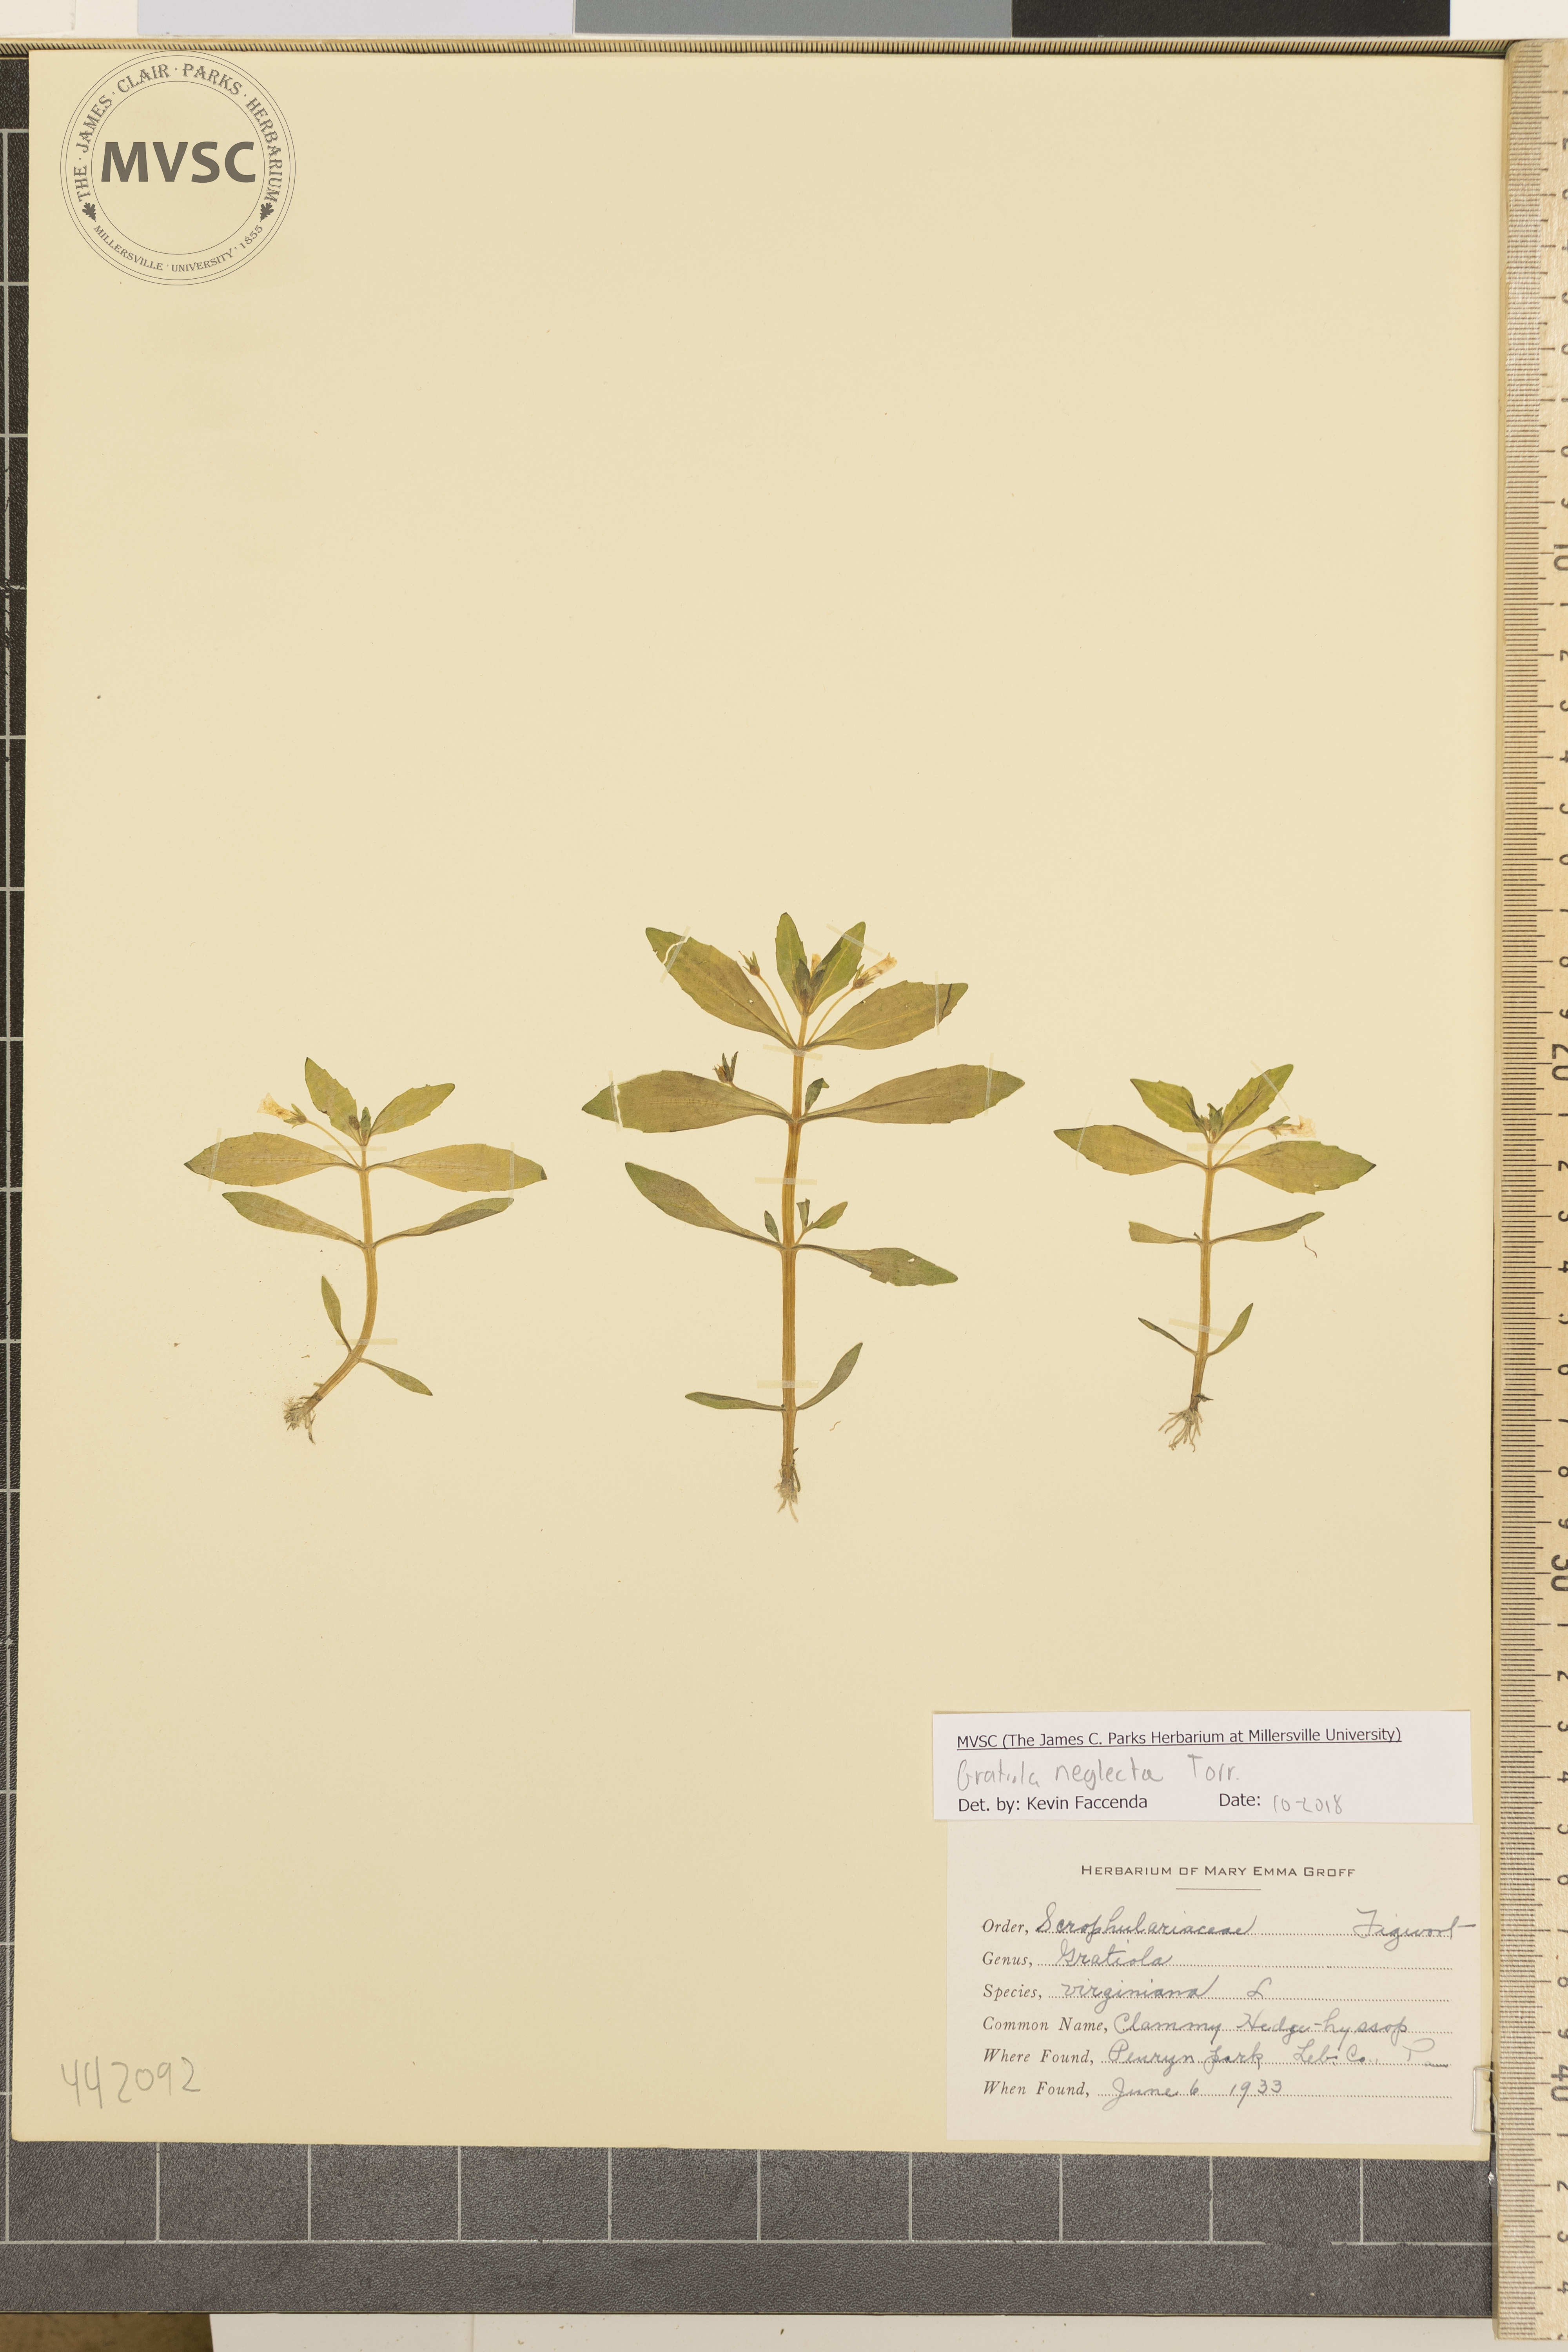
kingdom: Plantae
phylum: Tracheophyta
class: Magnoliopsida
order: Lamiales
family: Plantaginaceae
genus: Gratiola
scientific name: Gratiola neglecta
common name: Clammy Hedge-hyssop
